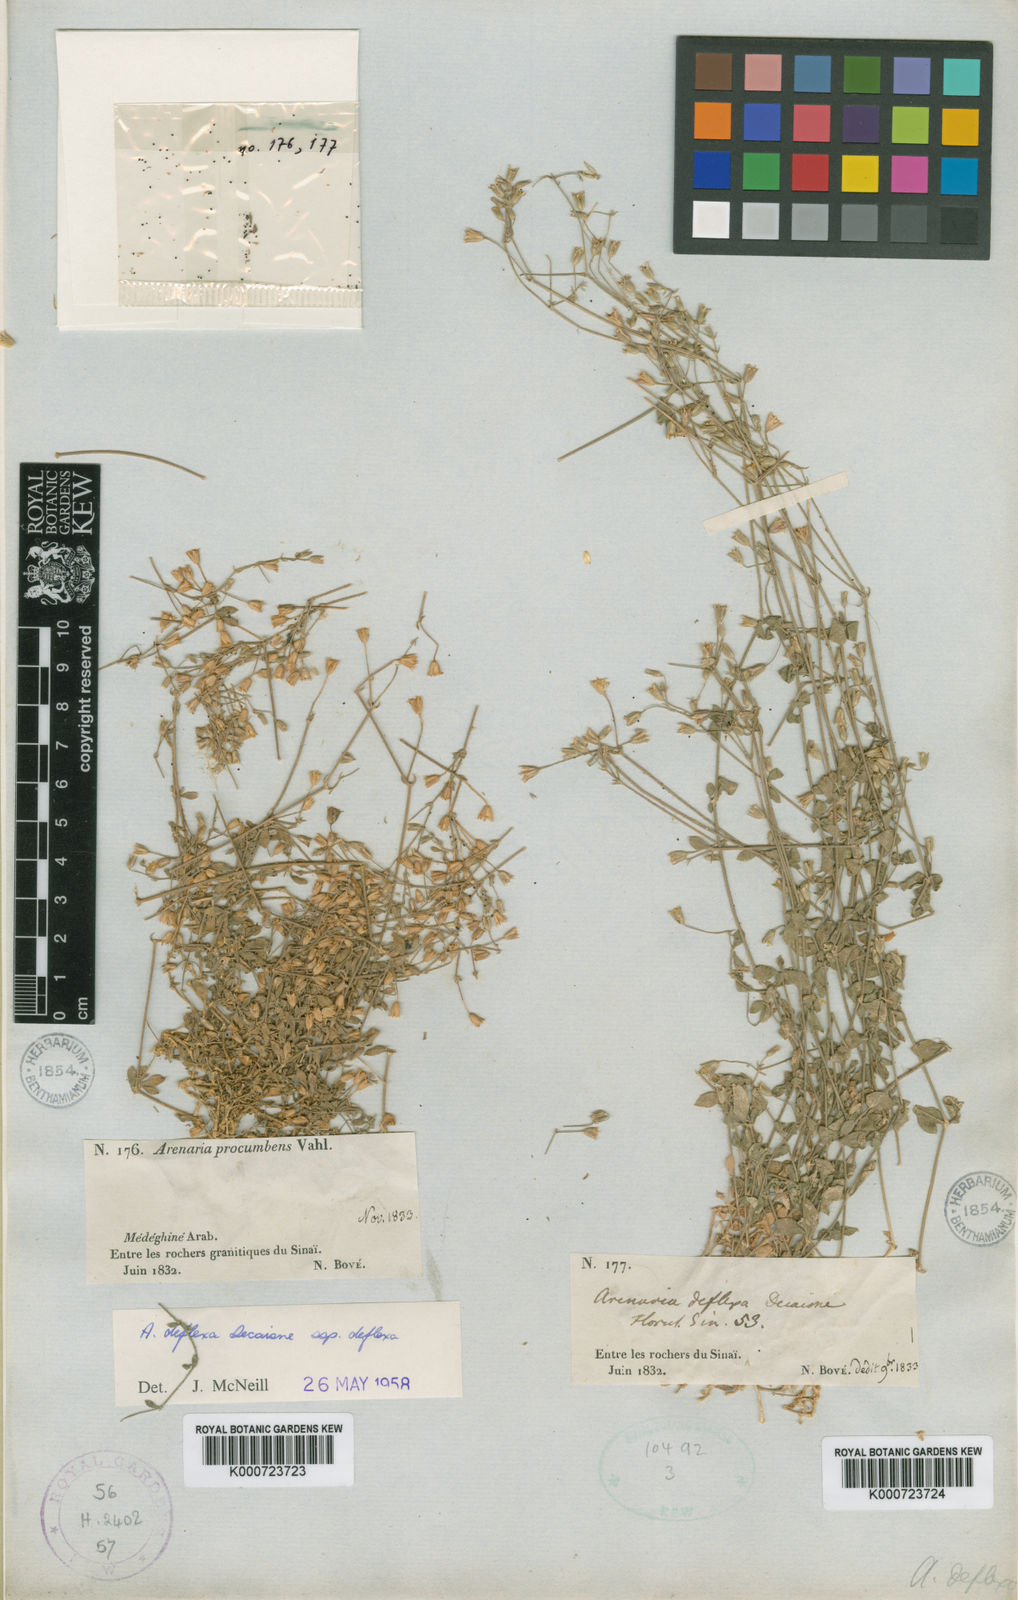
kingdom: Plantae
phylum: Tracheophyta
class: Magnoliopsida
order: Caryophyllales
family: Caryophyllaceae
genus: Arenaria
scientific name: Arenaria deflexa
